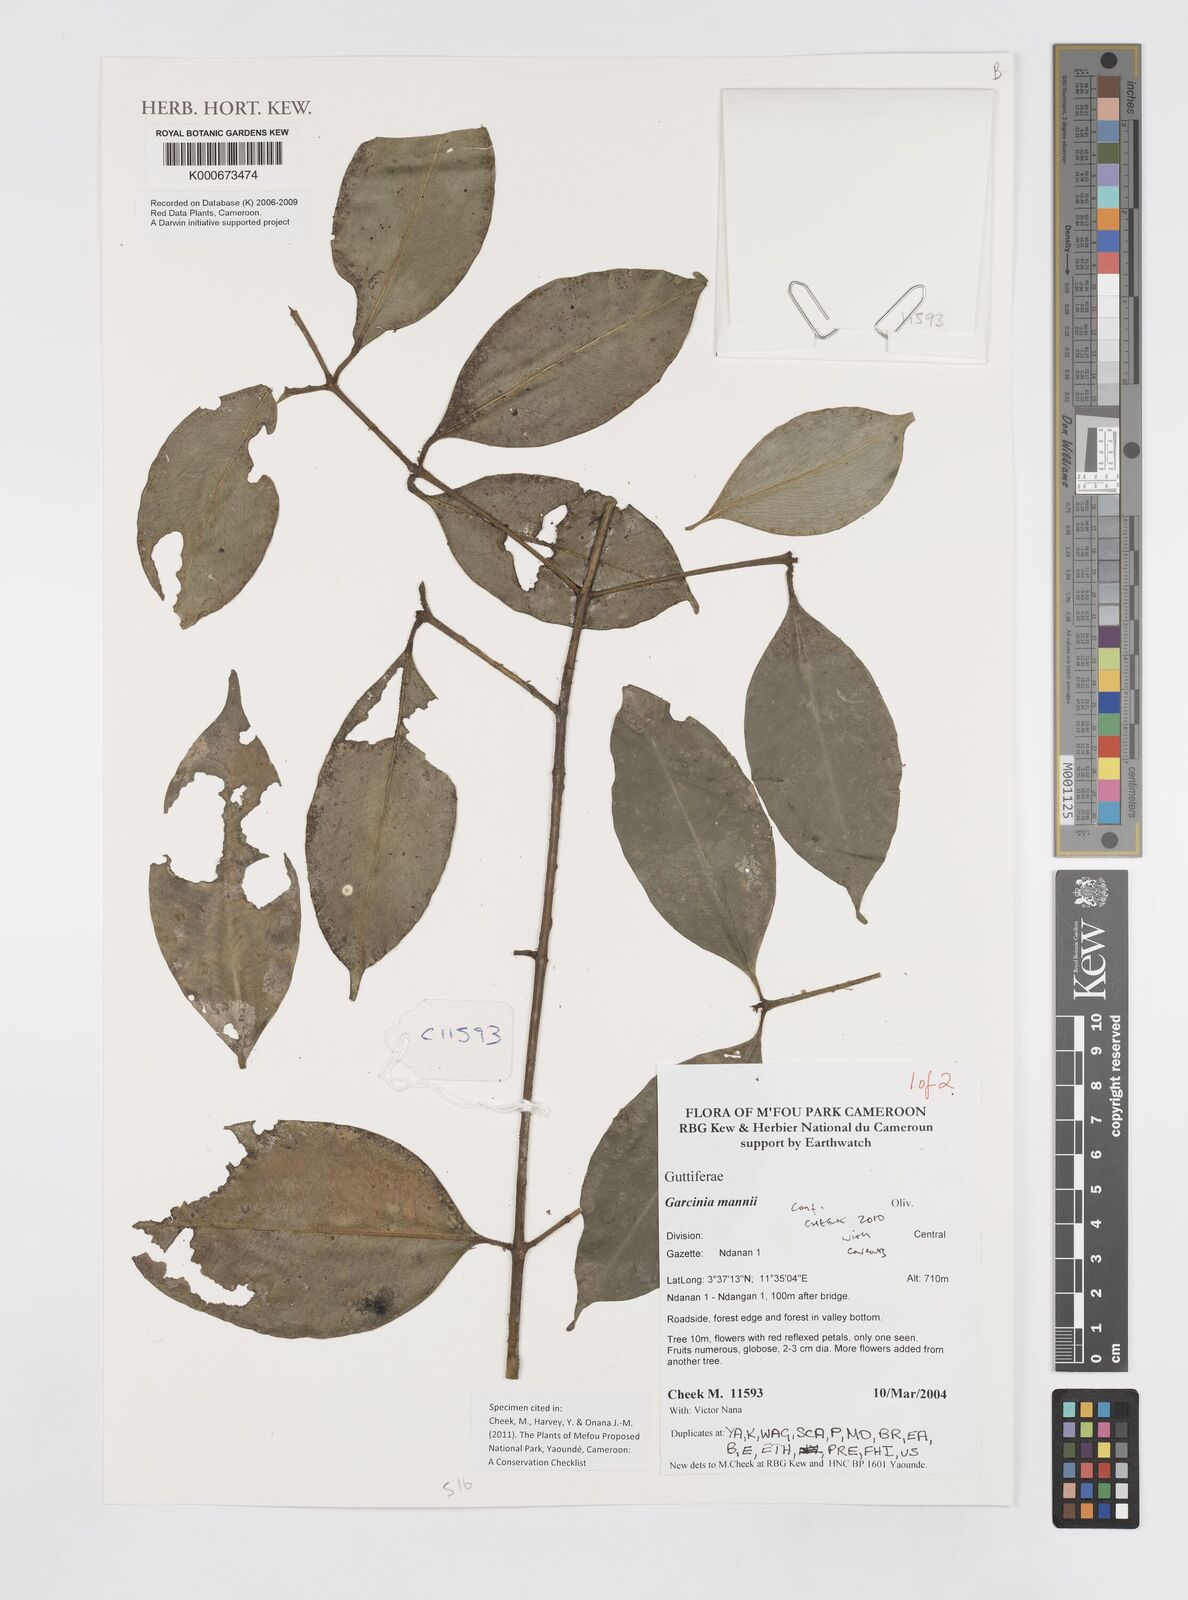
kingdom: Plantae
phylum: Tracheophyta
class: Magnoliopsida
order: Malpighiales
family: Clusiaceae
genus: Garcinia
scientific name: Garcinia mannii
